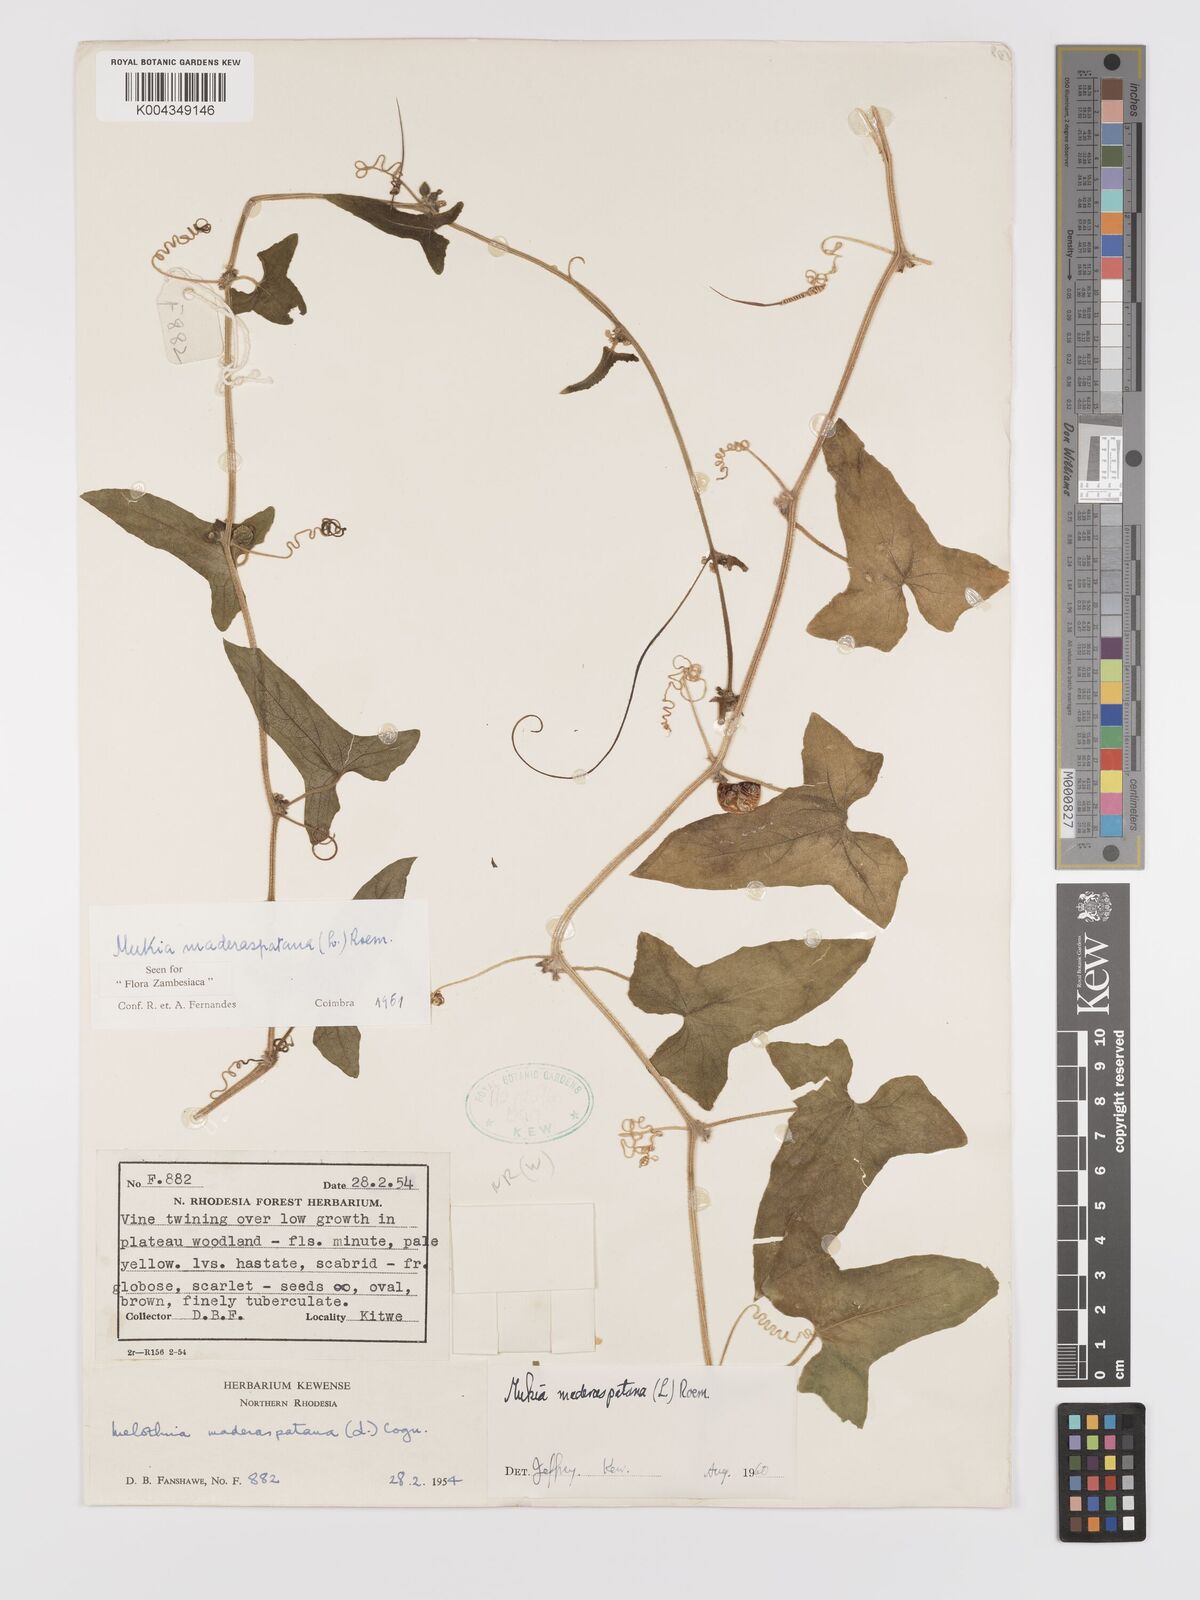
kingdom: Plantae
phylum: Tracheophyta
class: Magnoliopsida
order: Cucurbitales
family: Cucurbitaceae
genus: Cucumis
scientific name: Cucumis maderaspatanus
